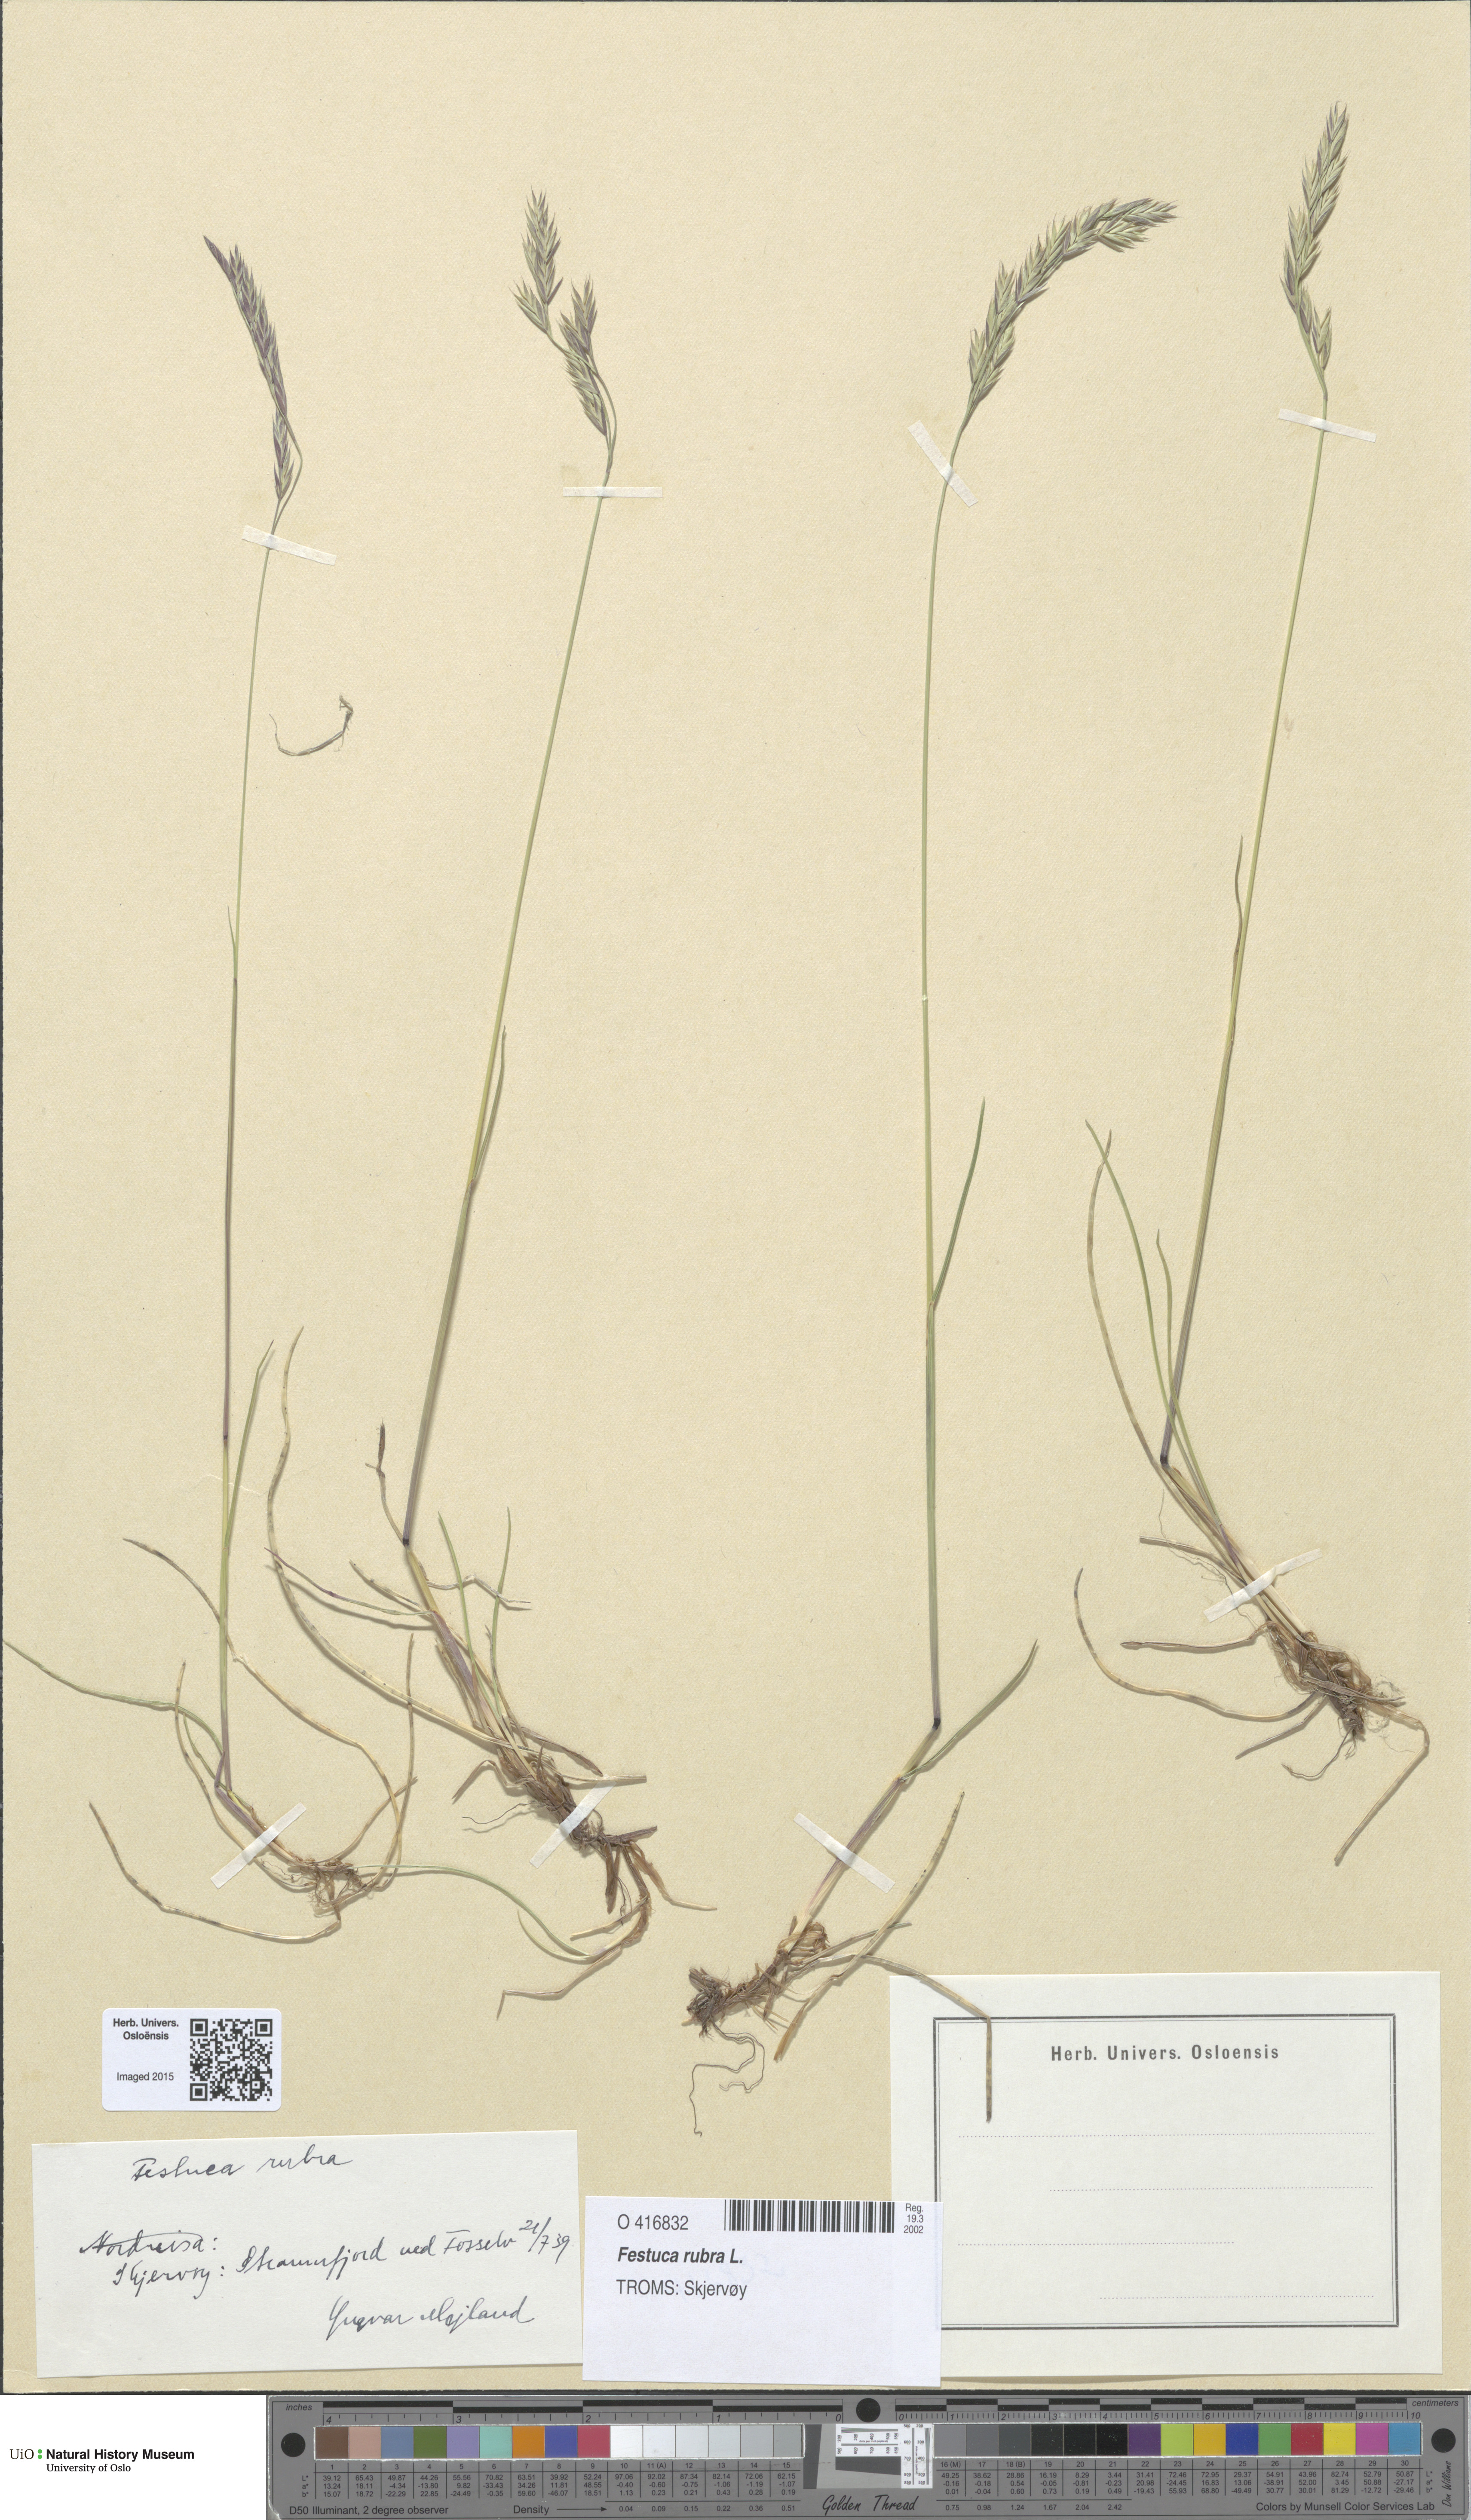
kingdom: Plantae
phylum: Tracheophyta
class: Liliopsida
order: Poales
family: Poaceae
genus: Festuca
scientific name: Festuca rubra
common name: Red fescue
